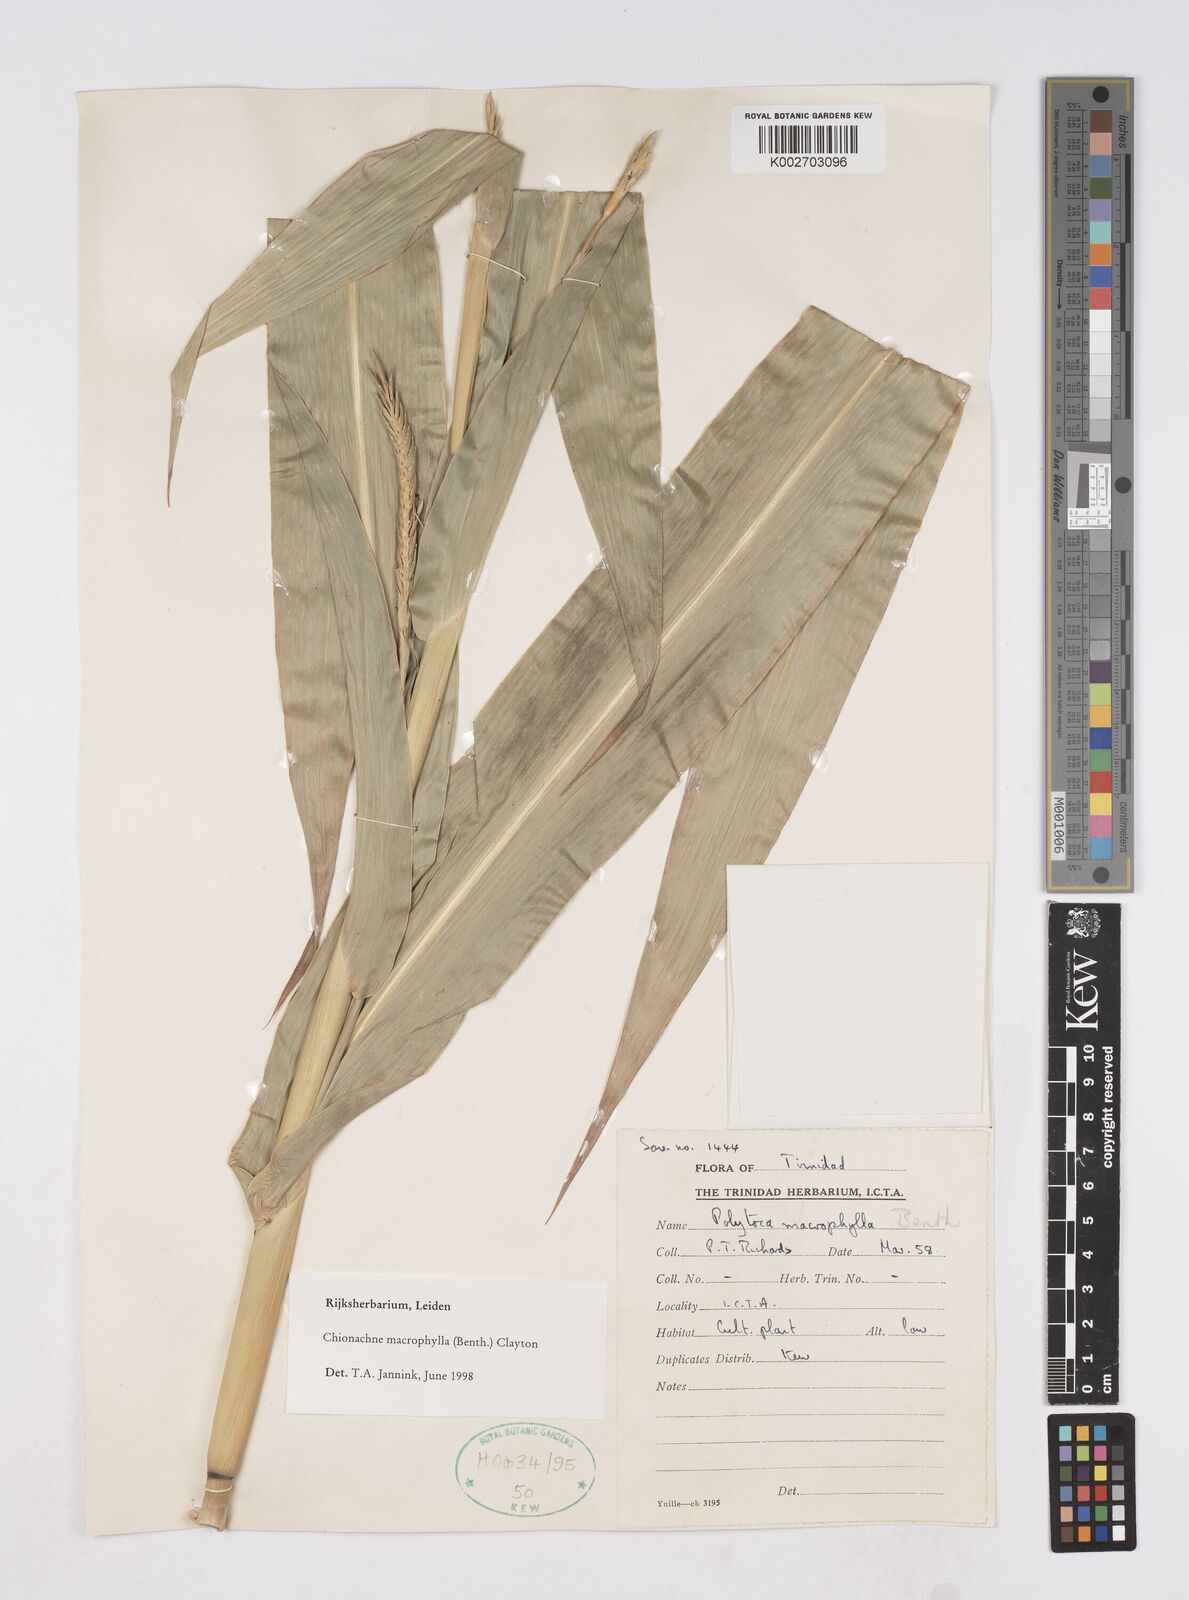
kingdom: Plantae
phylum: Tracheophyta
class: Liliopsida
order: Poales
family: Poaceae
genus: Polytoca
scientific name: Polytoca macrophylla
